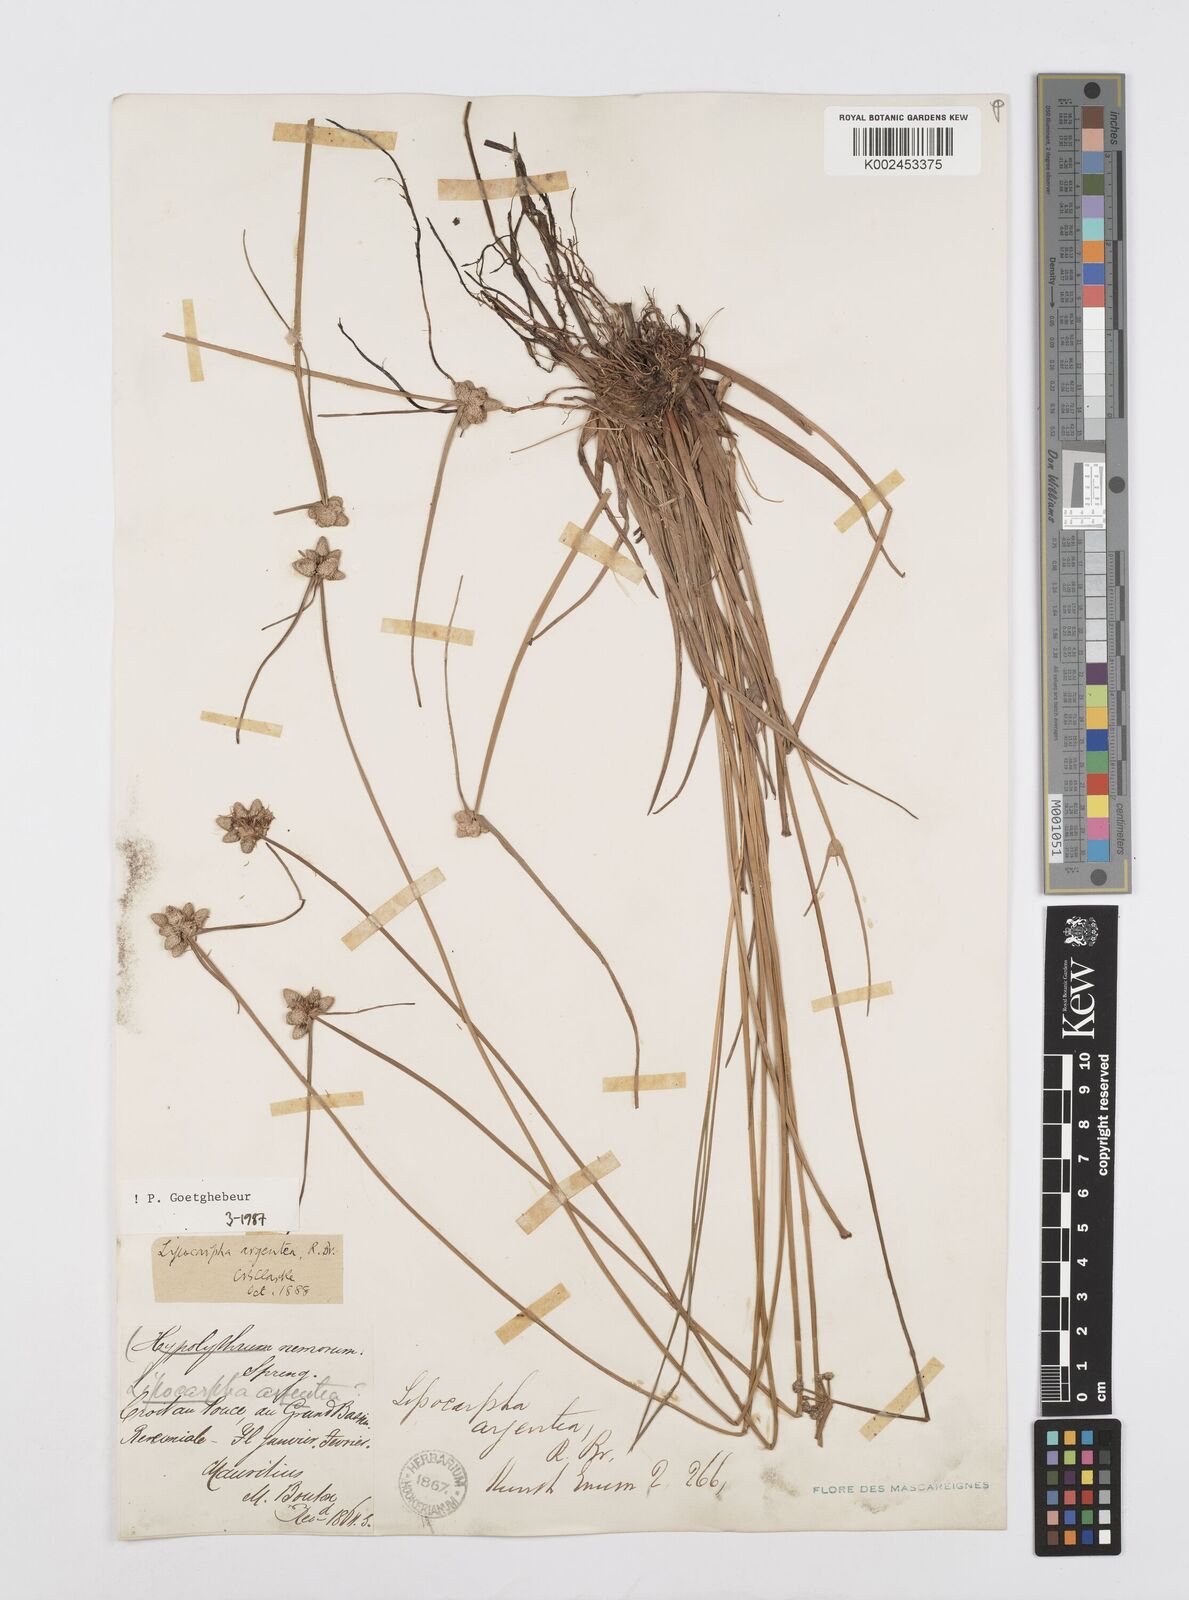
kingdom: Plantae
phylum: Tracheophyta
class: Liliopsida
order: Poales
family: Cyperaceae
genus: Cyperus
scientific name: Cyperus
